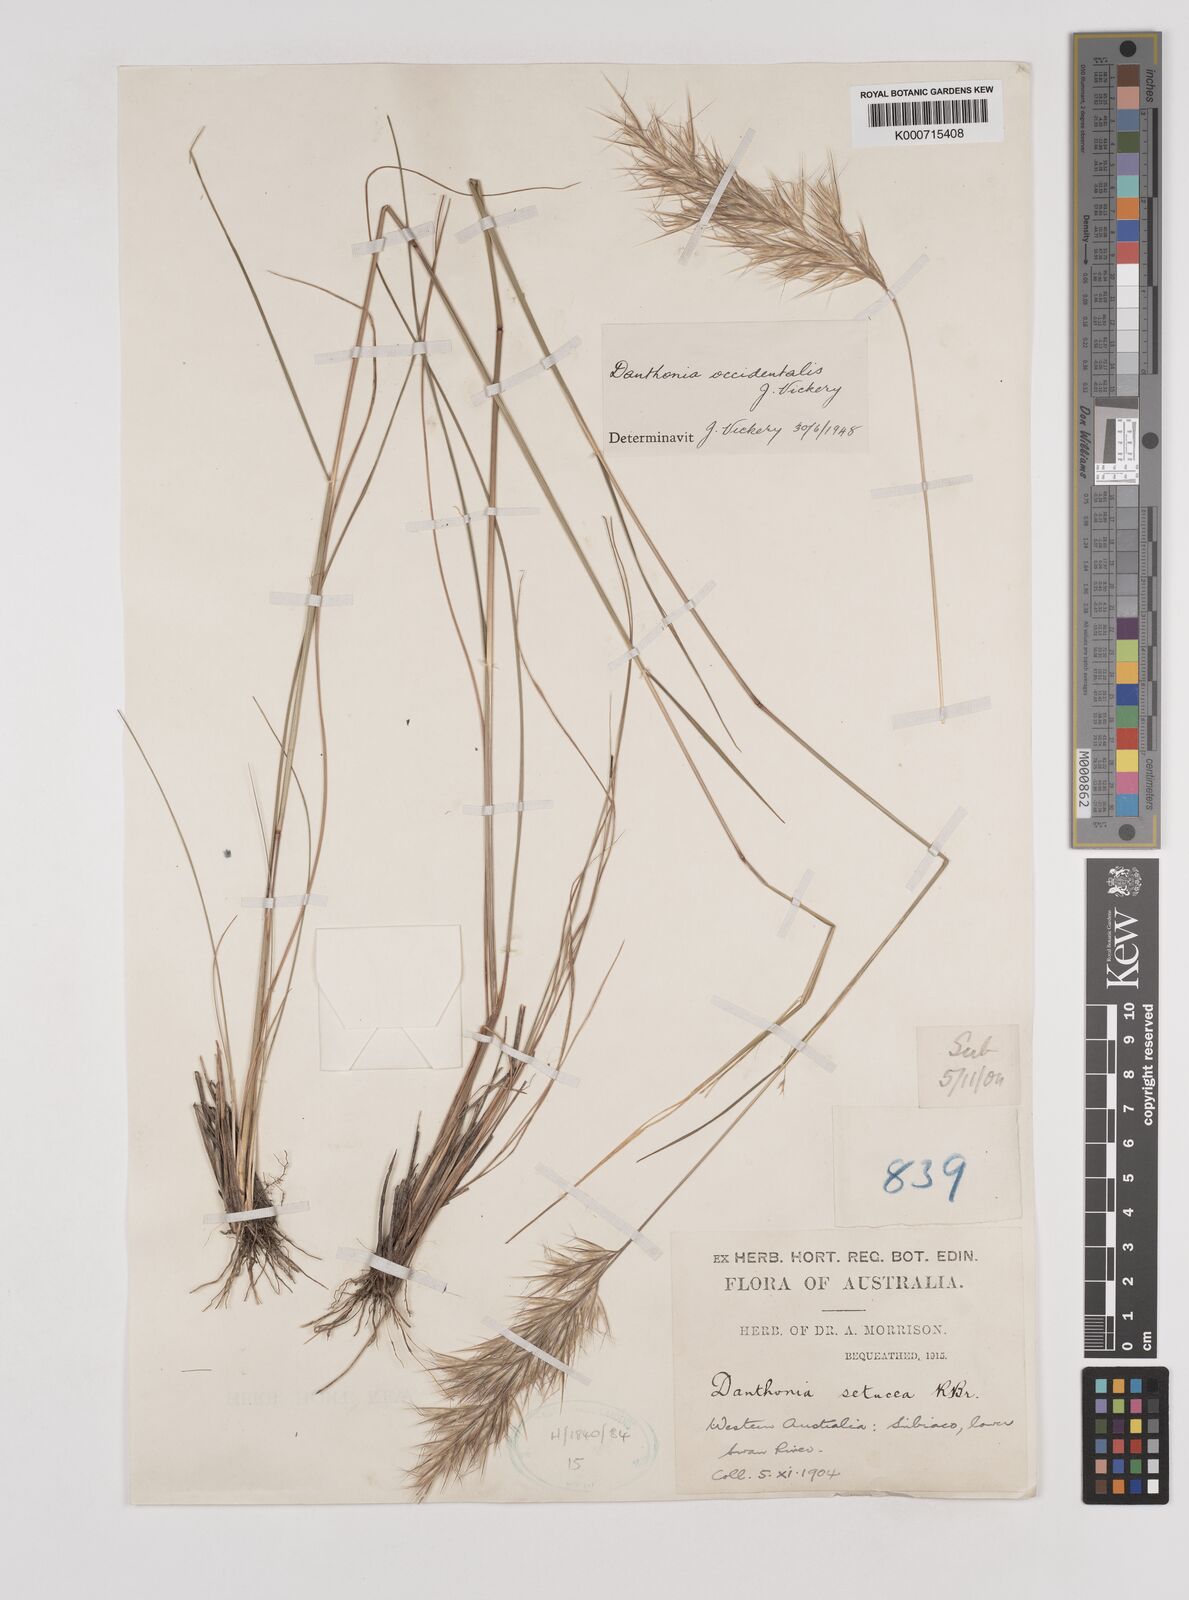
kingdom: Plantae
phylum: Tracheophyta
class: Liliopsida
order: Poales
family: Poaceae
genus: Rytidosperma
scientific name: Rytidosperma occidentale
